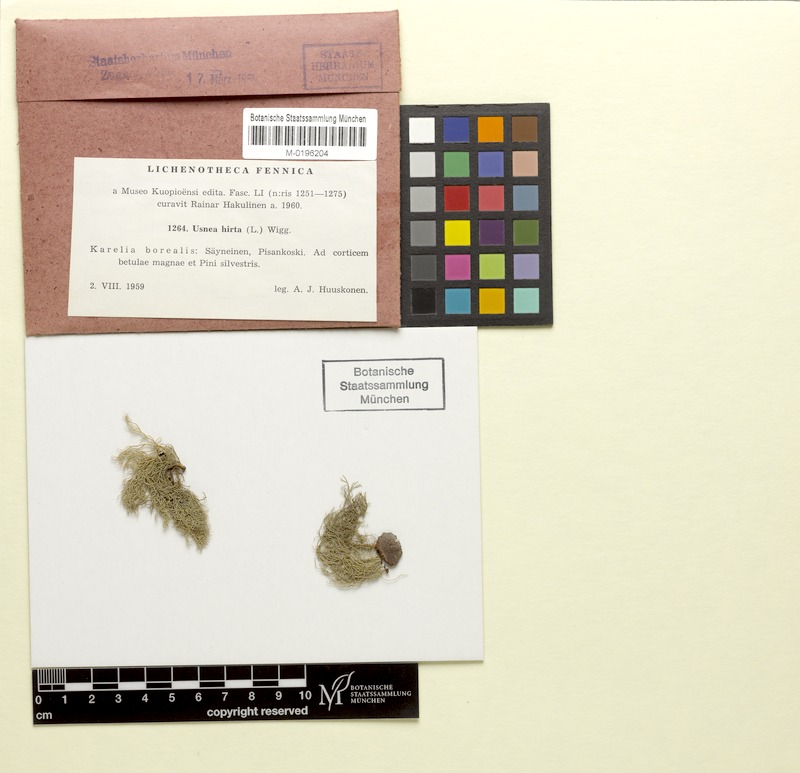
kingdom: Fungi
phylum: Ascomycota
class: Lecanoromycetes
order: Lecanorales
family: Parmeliaceae
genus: Usnea
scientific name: Usnea hirta
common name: Bristly beard lichen
